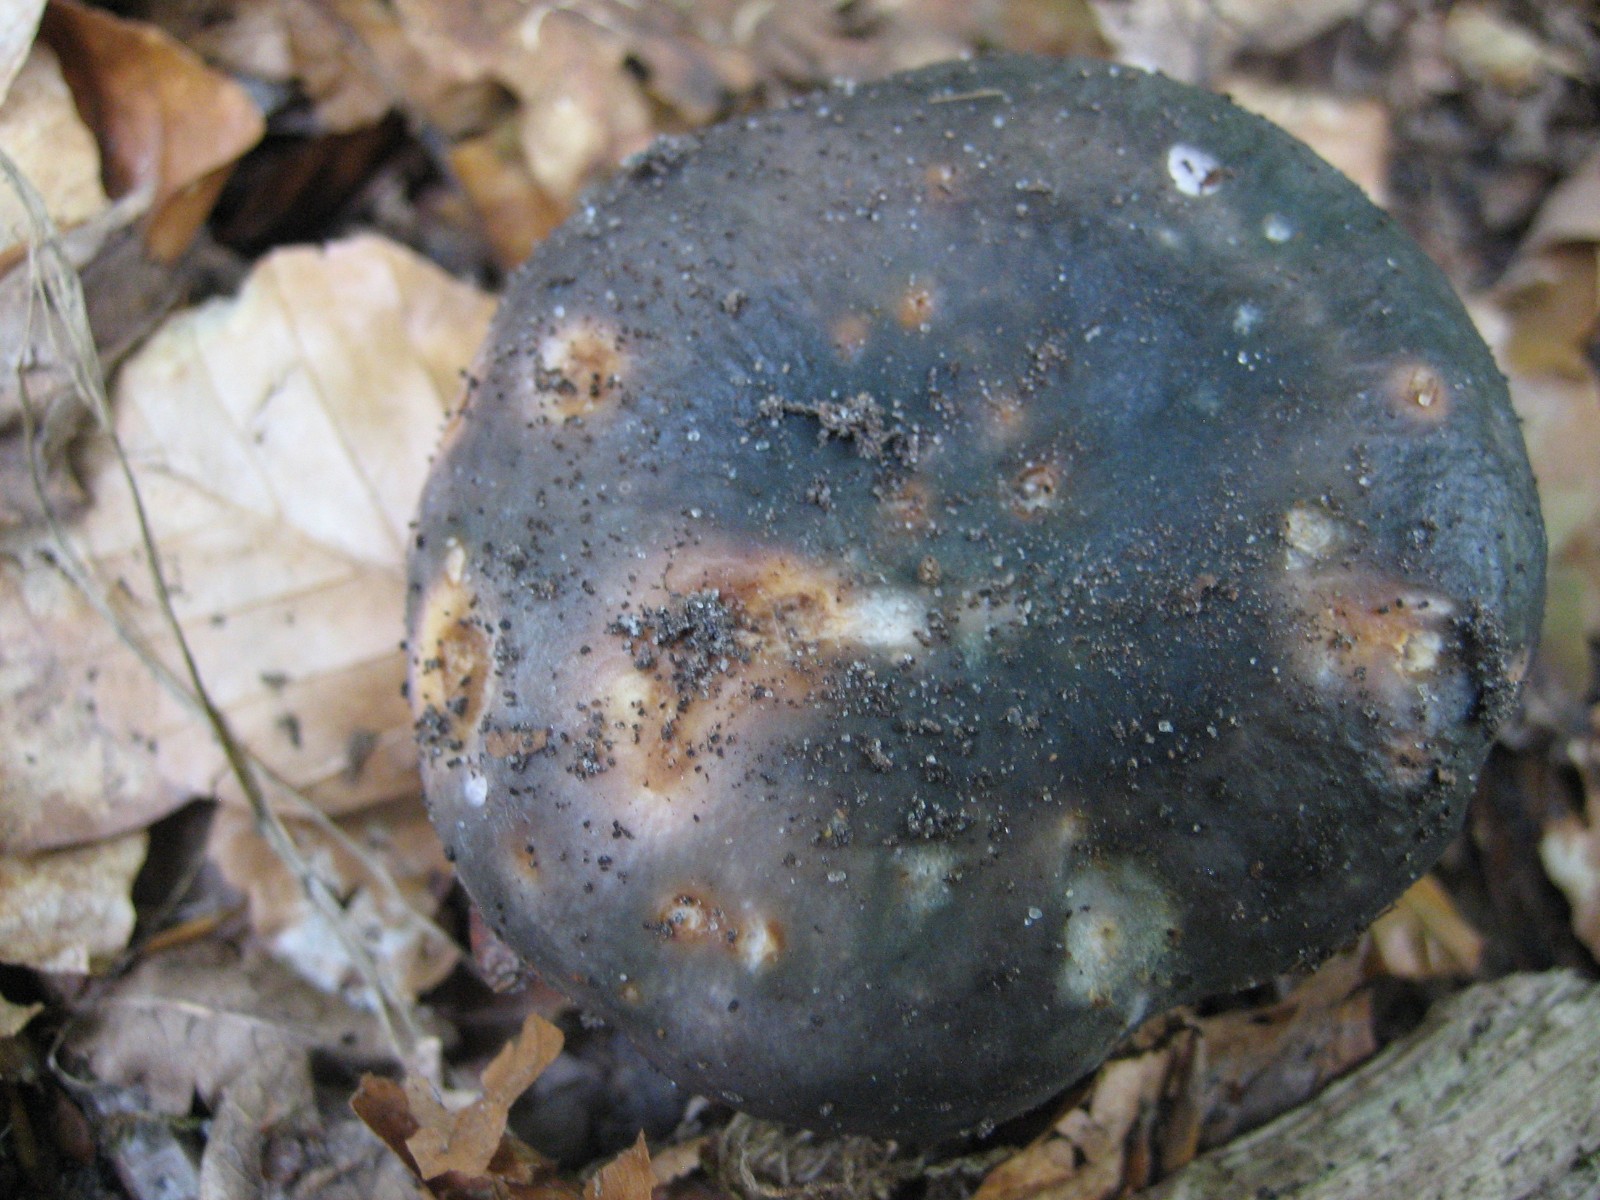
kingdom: Fungi
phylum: Basidiomycota
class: Agaricomycetes
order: Russulales
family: Russulaceae
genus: Russula
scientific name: Russula cyanoxantha
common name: broget skørhat
